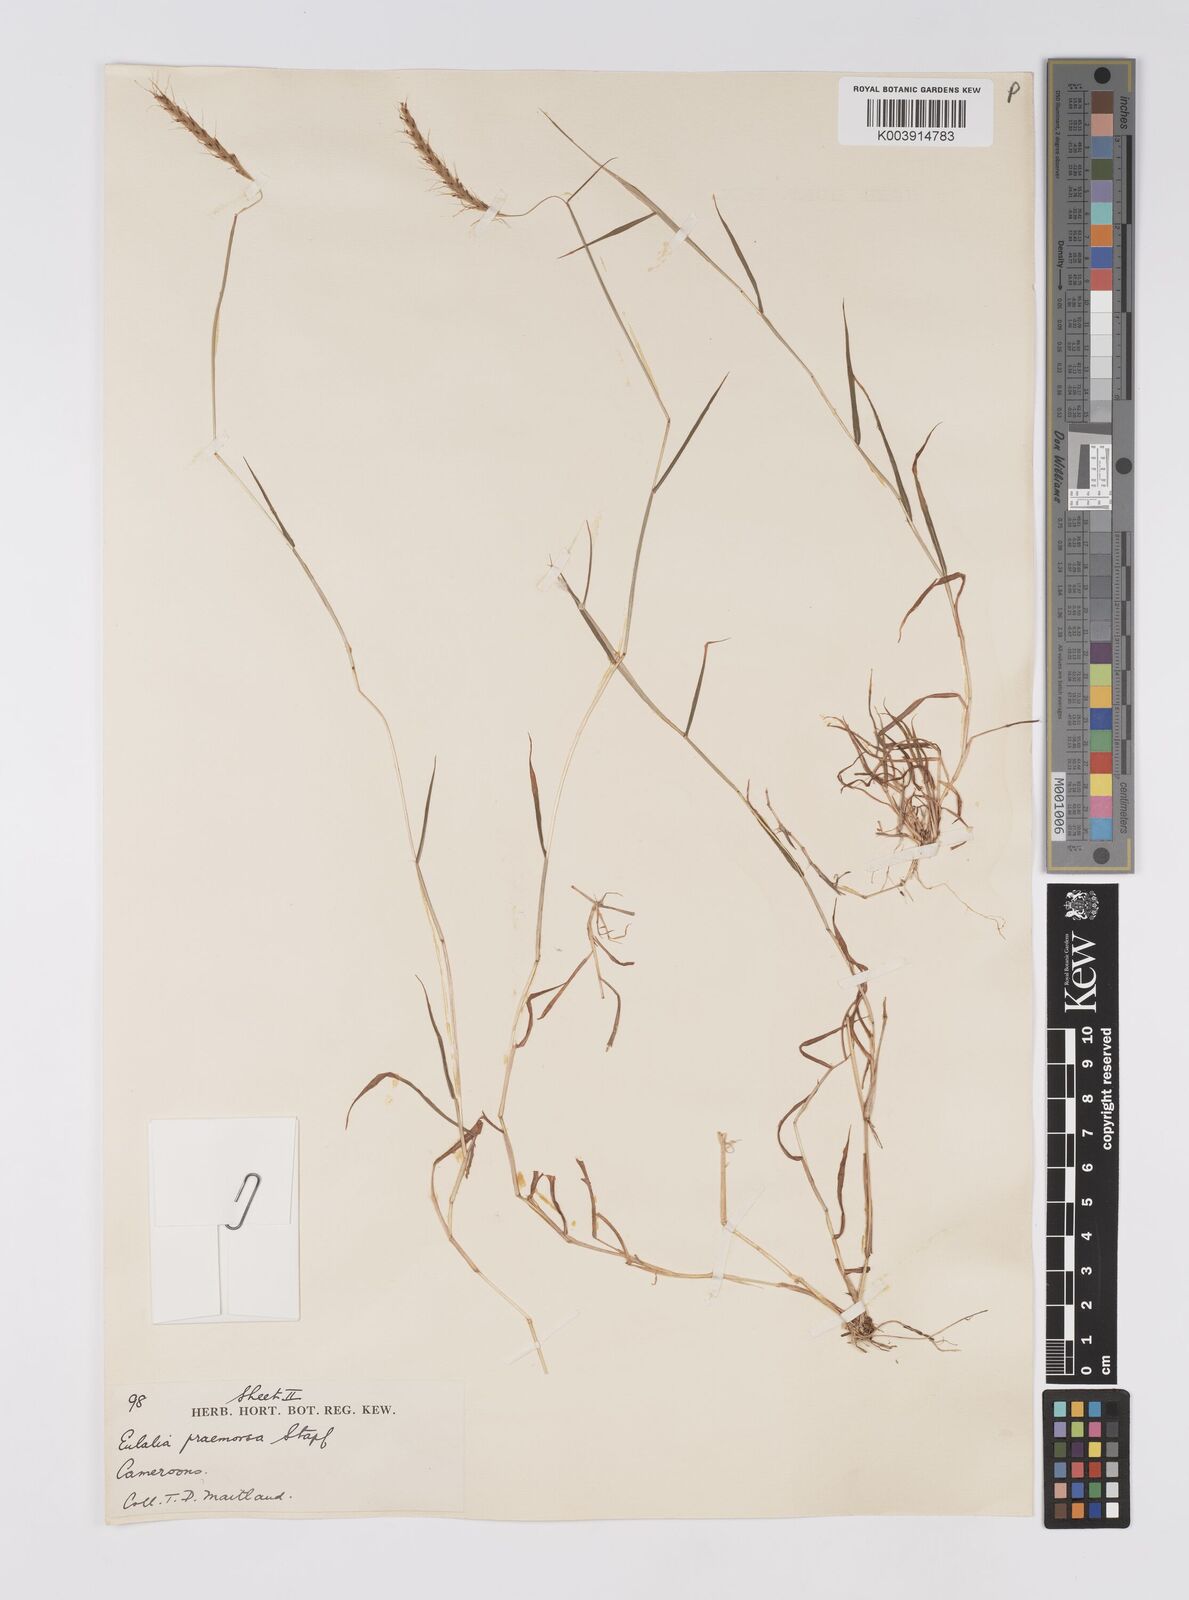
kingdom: Plantae
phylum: Tracheophyta
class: Liliopsida
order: Poales
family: Poaceae
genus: Polytrias
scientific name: Polytrias indica
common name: Indian murainagrass
